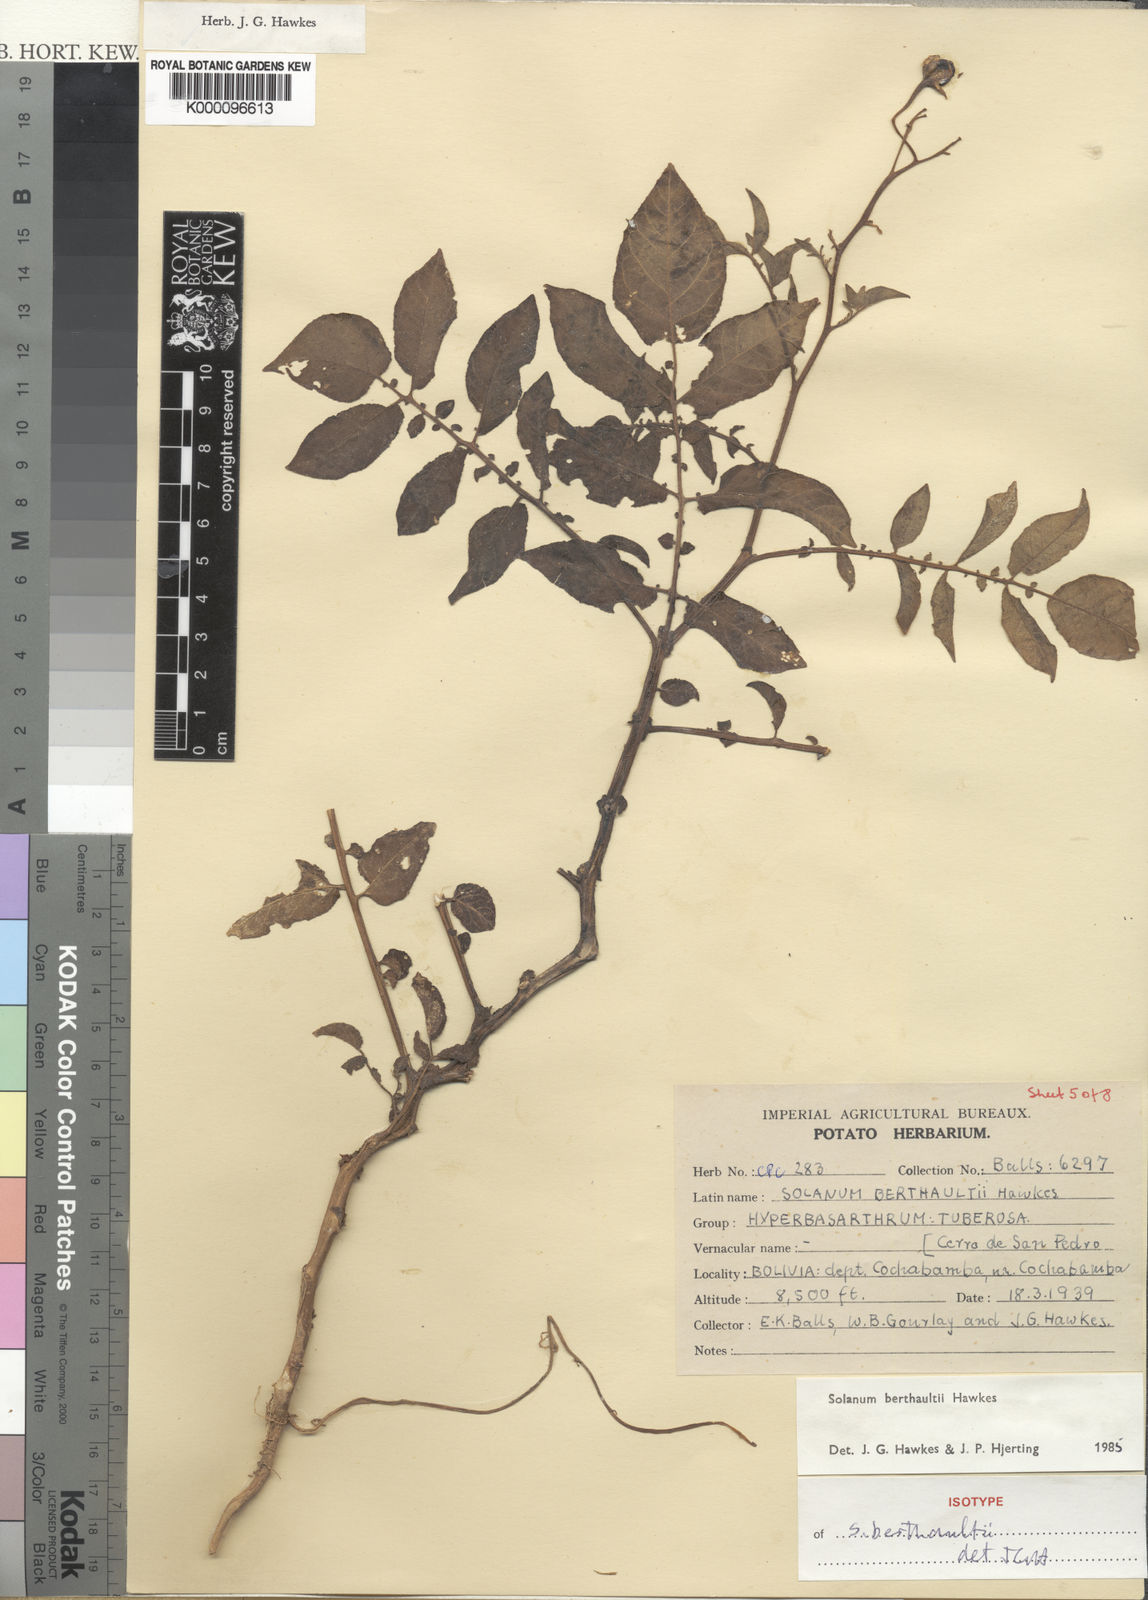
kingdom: Plantae
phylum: Tracheophyta
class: Magnoliopsida
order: Solanales
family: Solanaceae
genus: Solanum
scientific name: Solanum berthaultii
